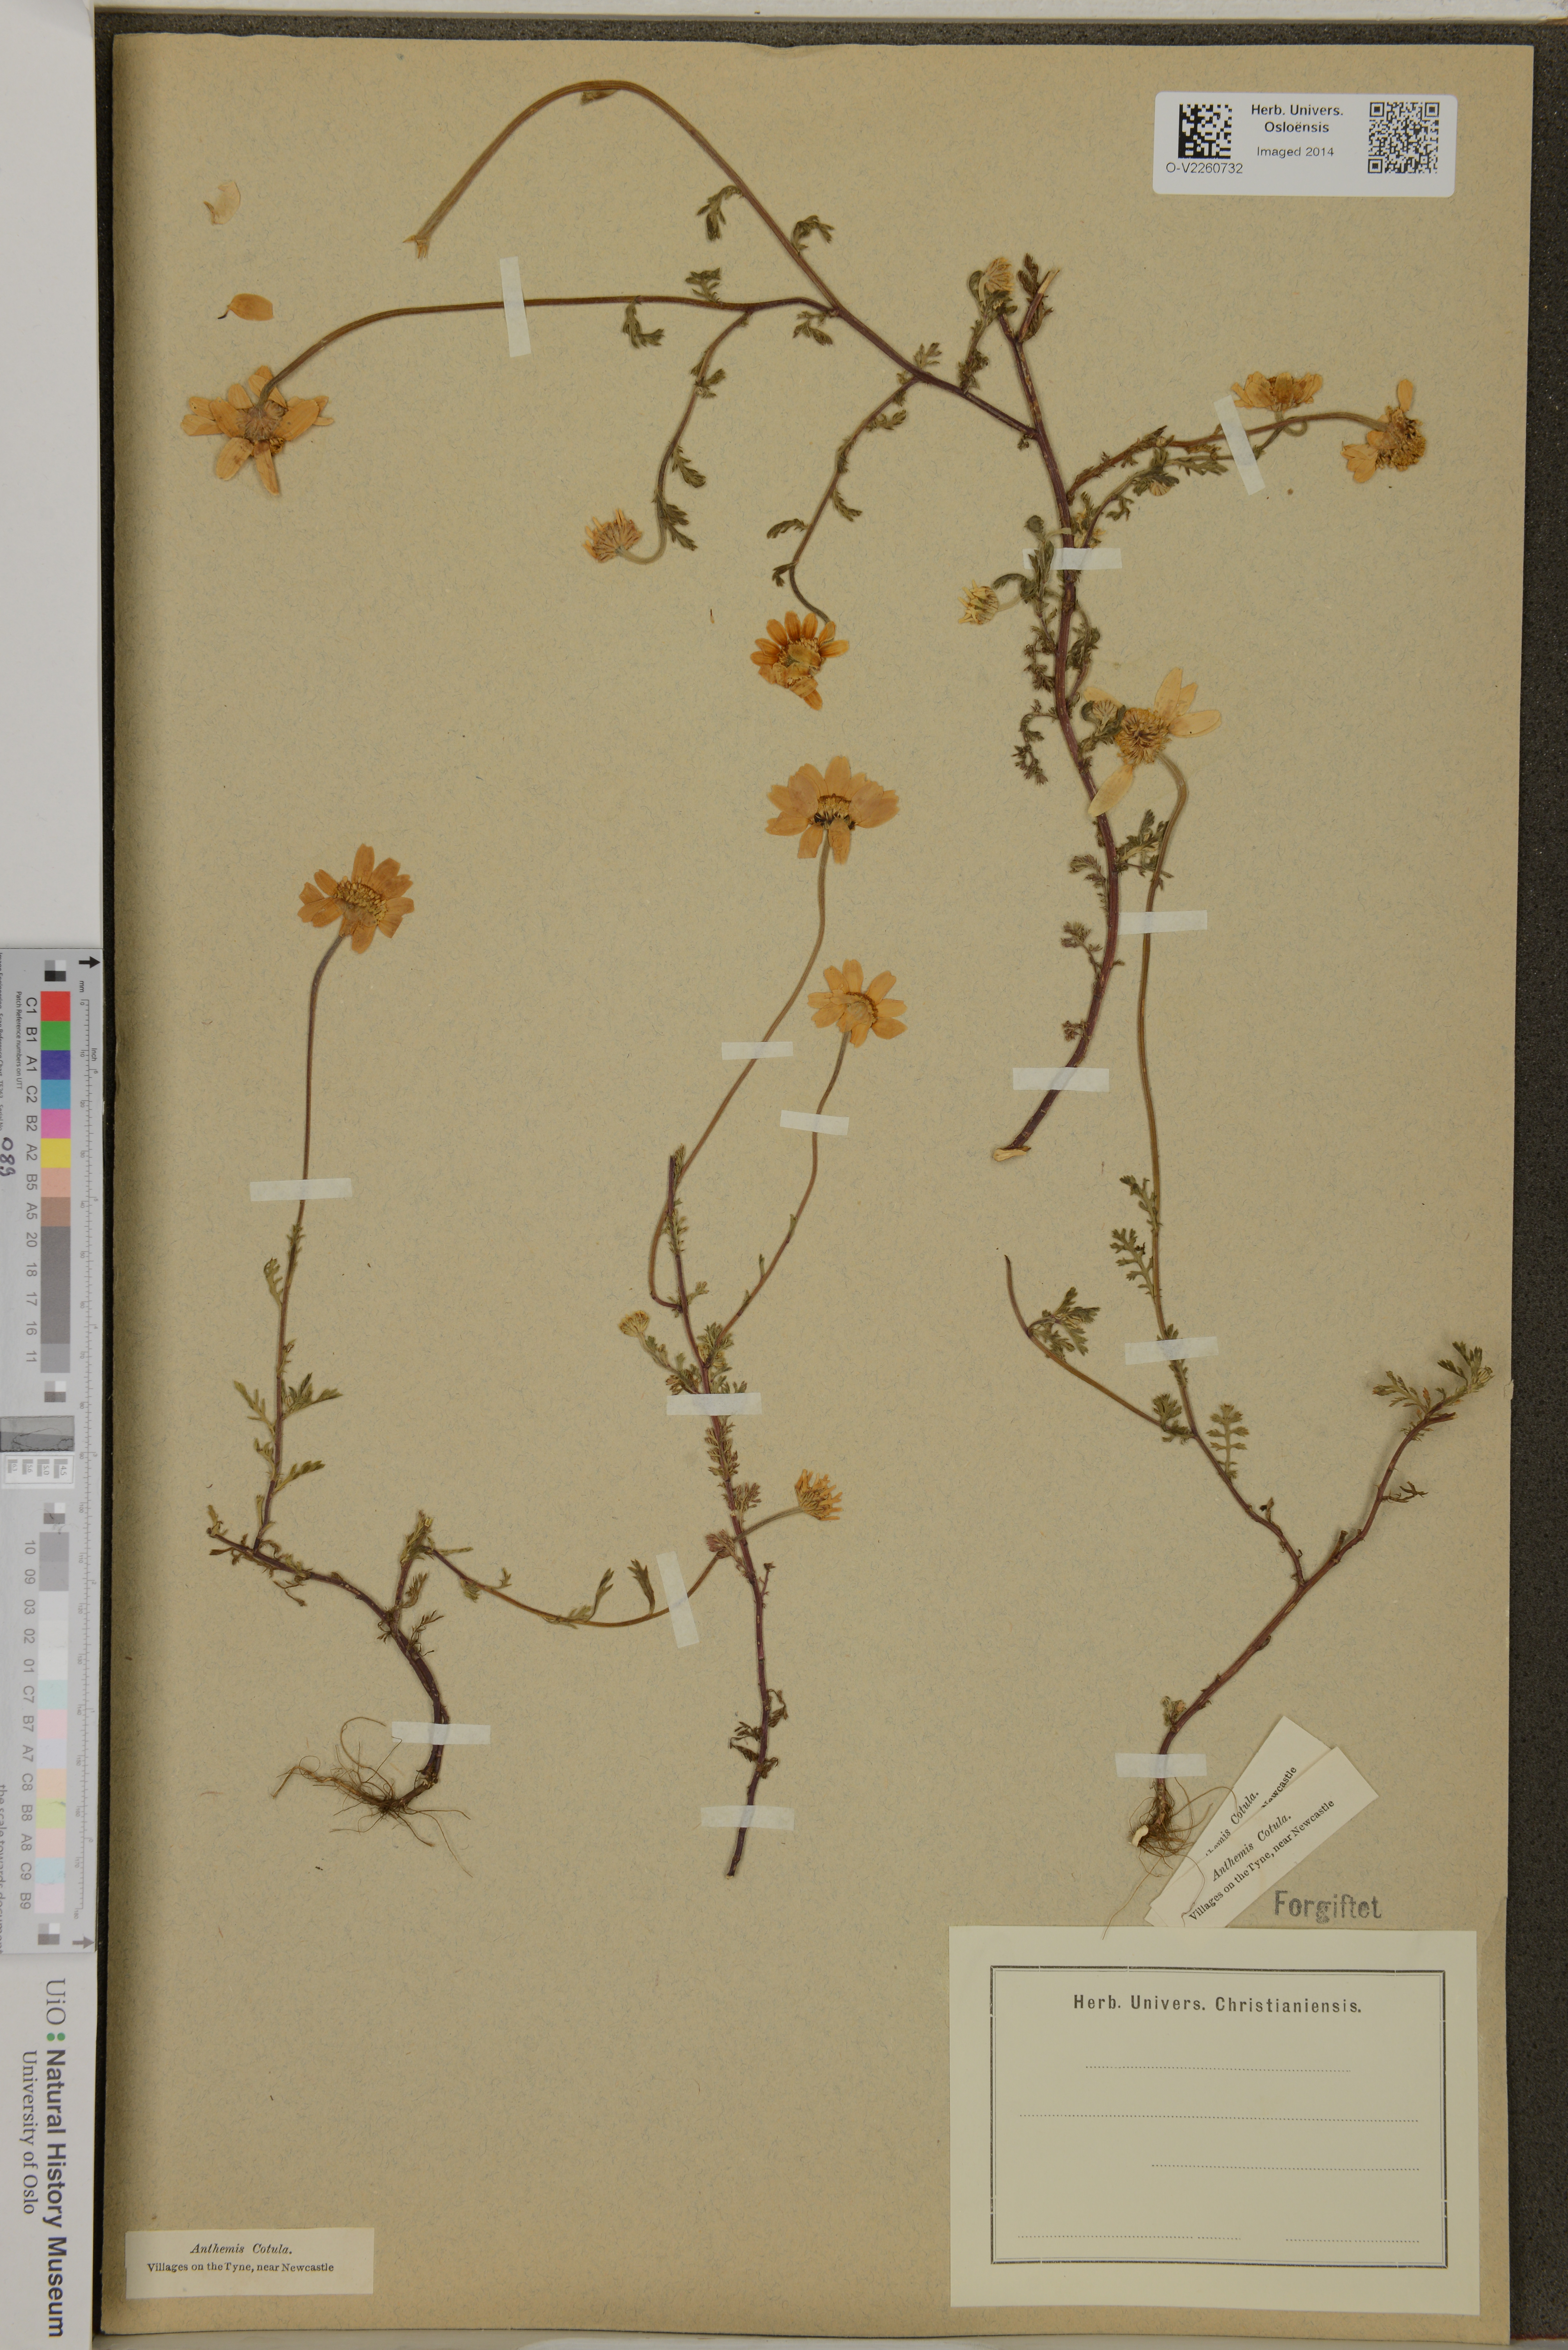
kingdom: Plantae
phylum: Tracheophyta
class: Magnoliopsida
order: Asterales
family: Asteraceae
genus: Anthemis
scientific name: Anthemis cotula
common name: Stinking chamomile
